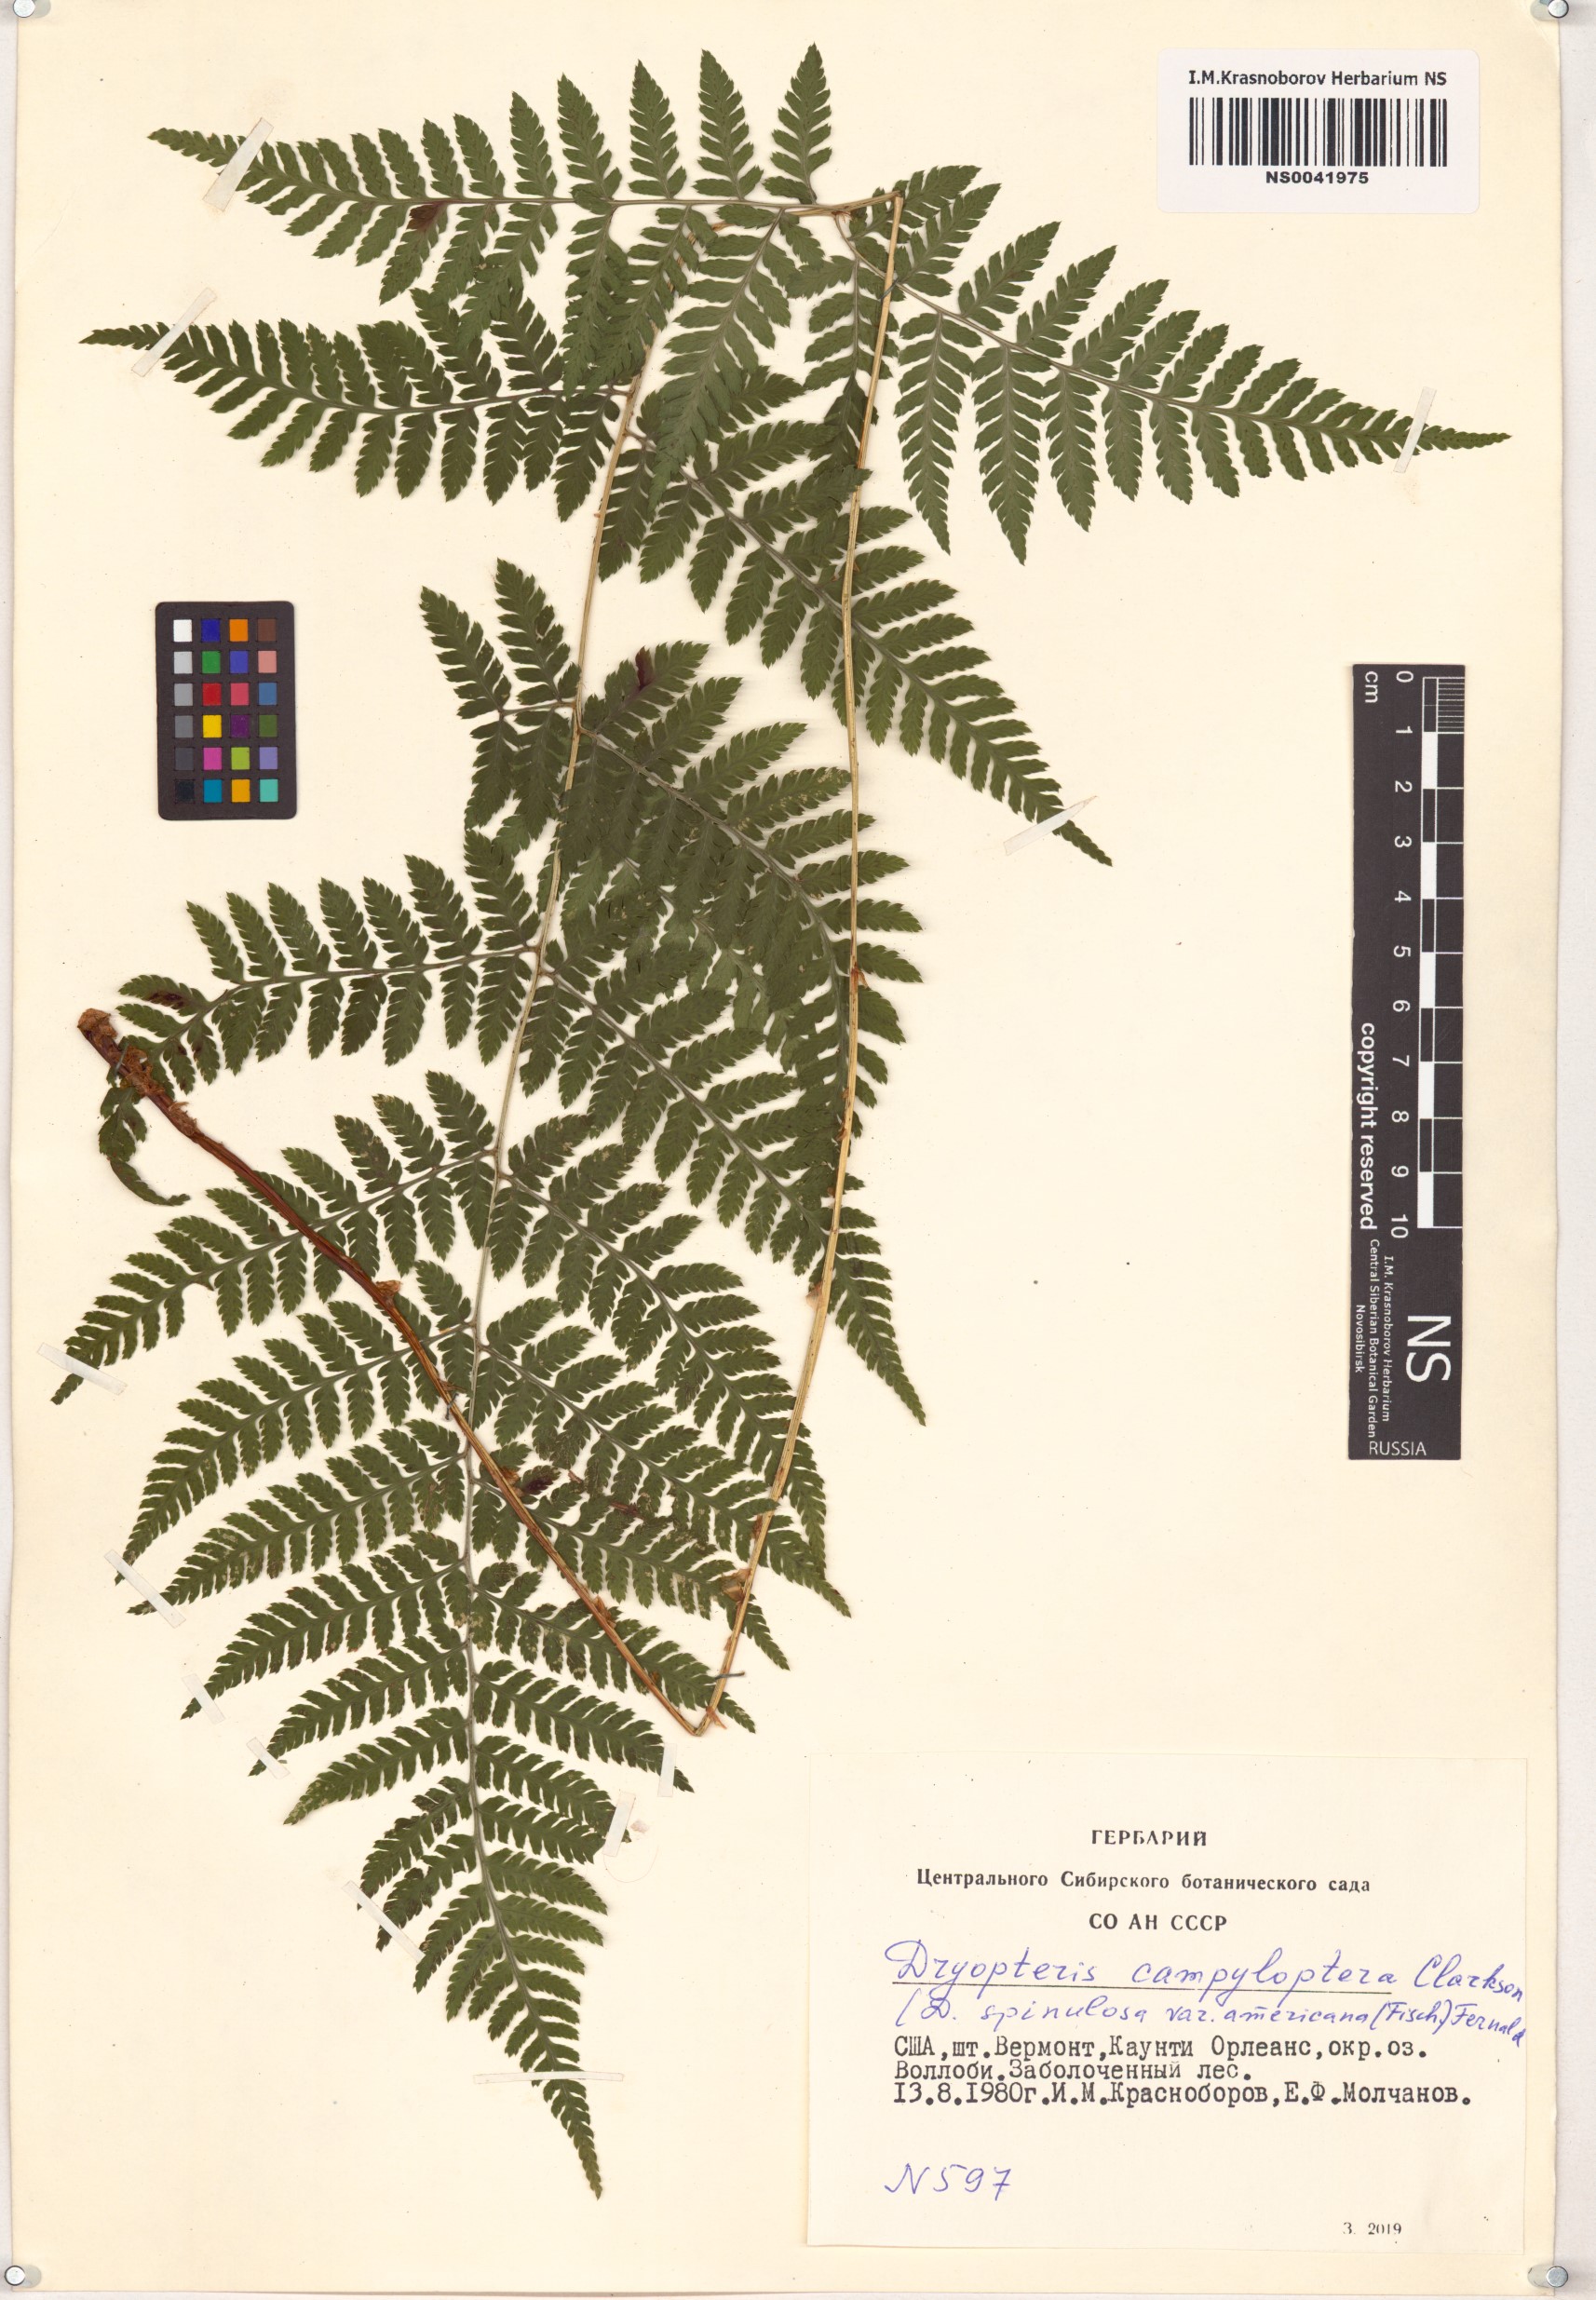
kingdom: Plantae
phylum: Tracheophyta
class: Polypodiopsida
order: Polypodiales
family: Dryopteridaceae
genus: Dryopteris
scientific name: Dryopteris campyloptera
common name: Mountain wood fern
